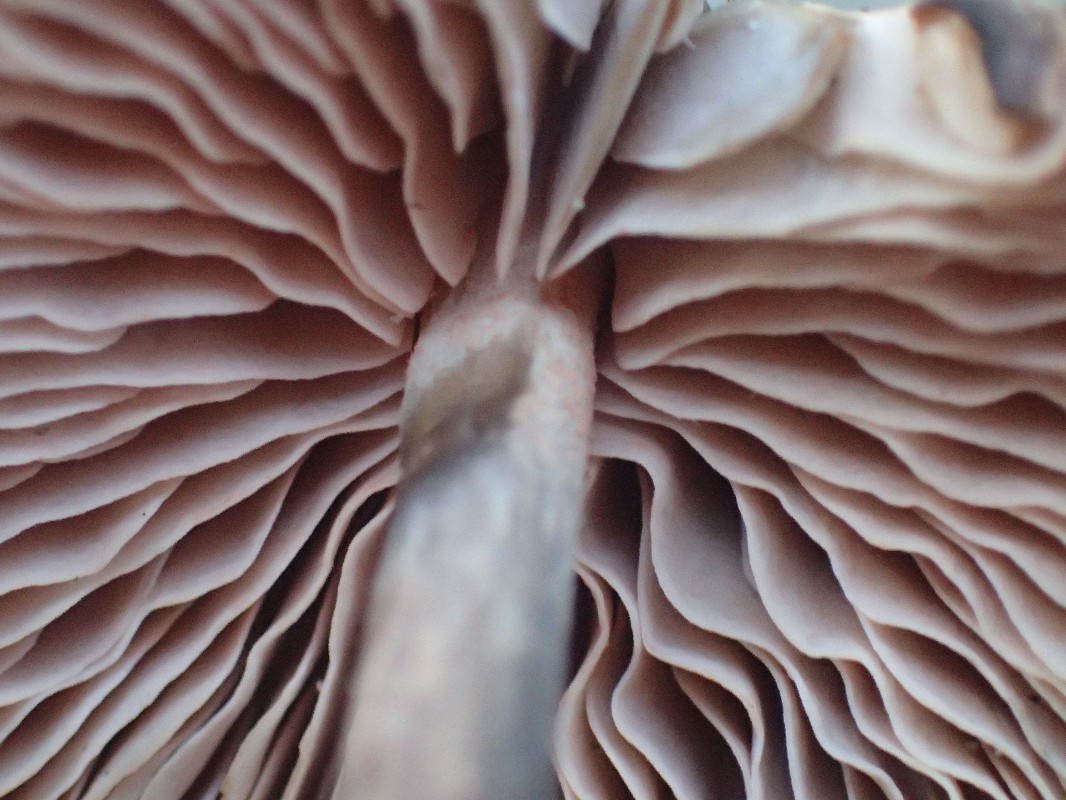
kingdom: Fungi
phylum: Basidiomycota
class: Agaricomycetes
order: Agaricales
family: Entolomataceae
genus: Entoloma
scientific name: Entoloma
